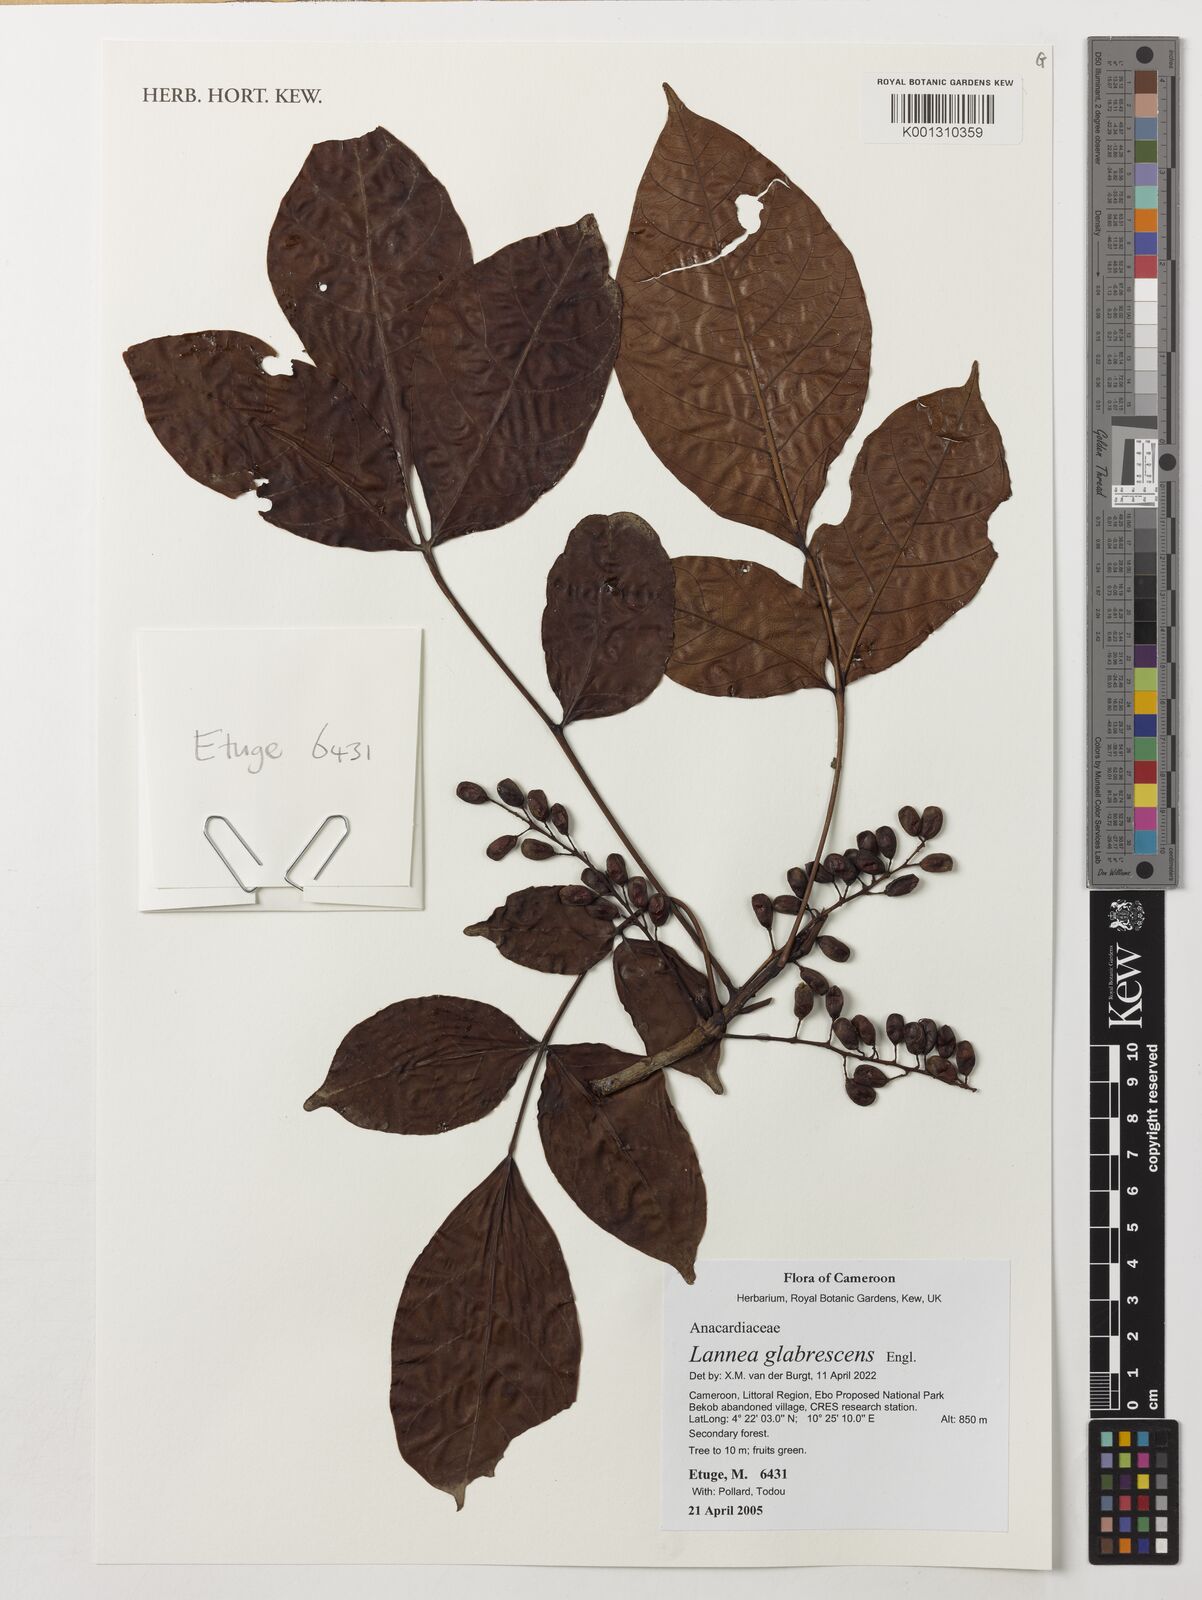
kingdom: Plantae
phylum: Tracheophyta
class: Magnoliopsida
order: Sapindales
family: Anacardiaceae
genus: Lannea
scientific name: Lannea glabrescens
